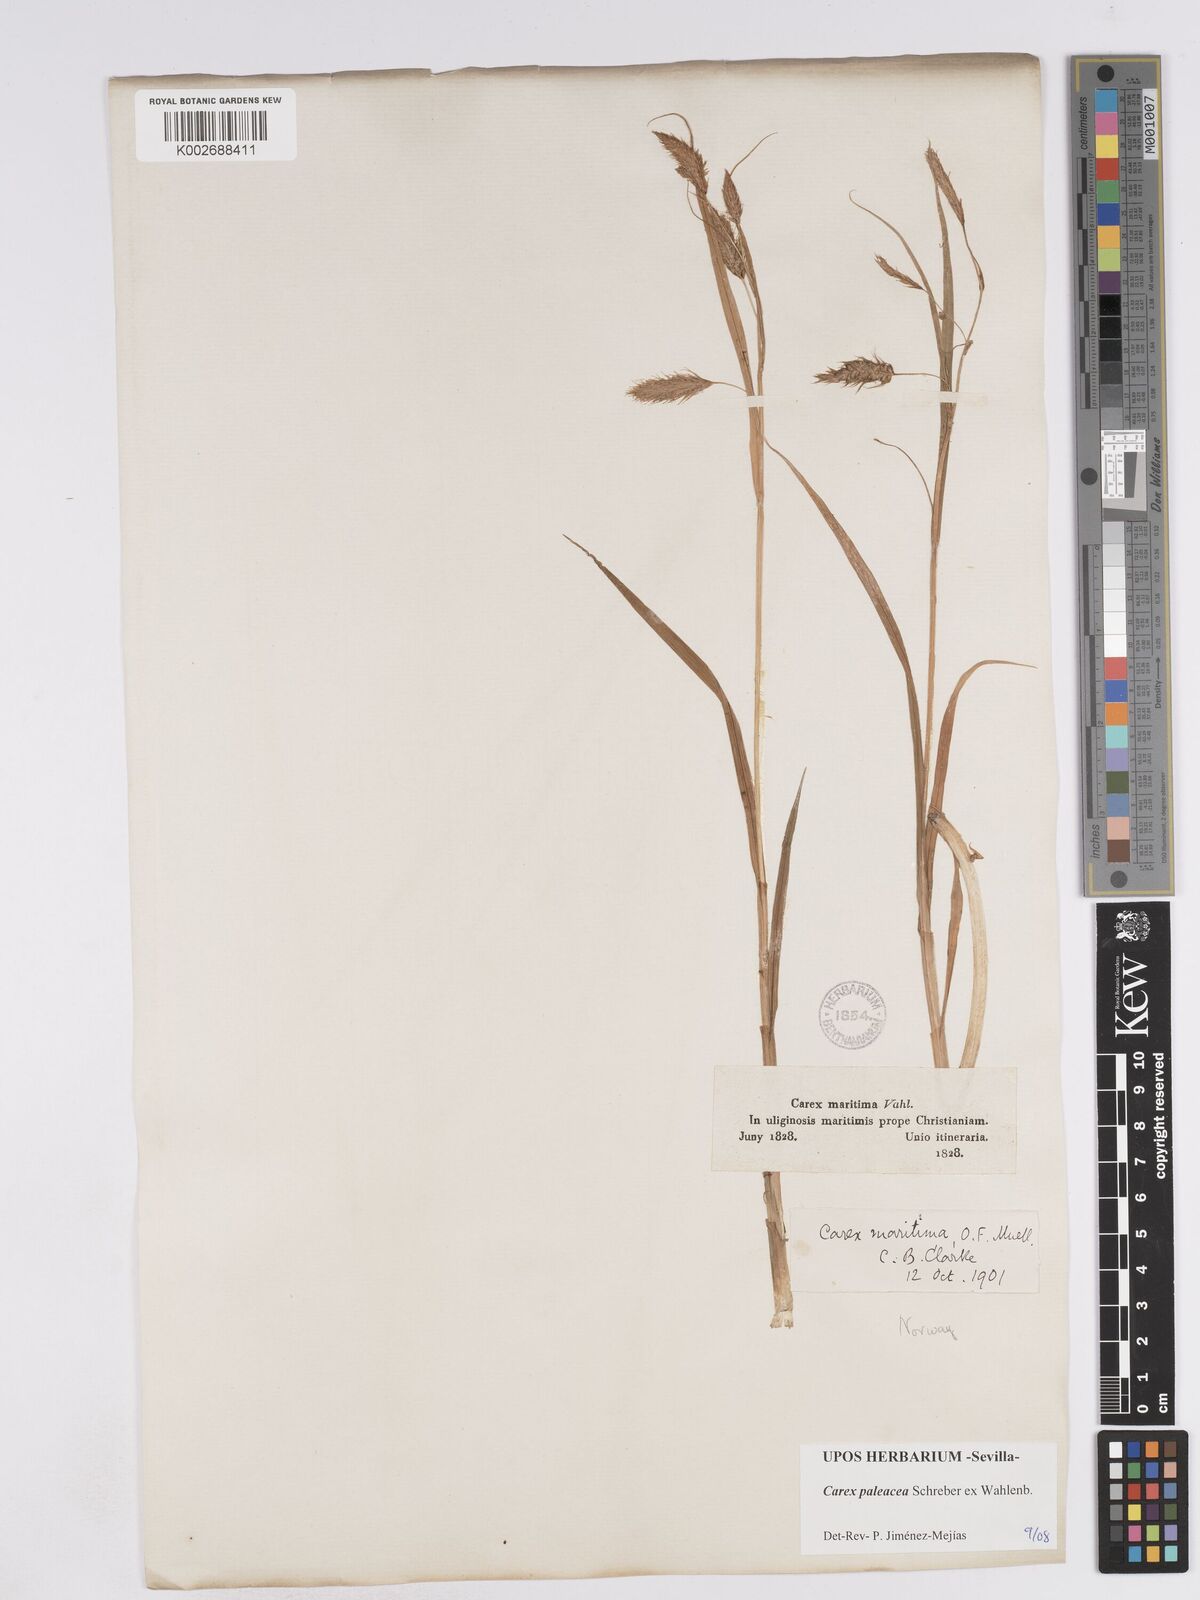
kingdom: Plantae
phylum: Tracheophyta
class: Liliopsida
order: Poales
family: Cyperaceae
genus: Carex
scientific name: Carex paleacea
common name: Chaffy sedge
